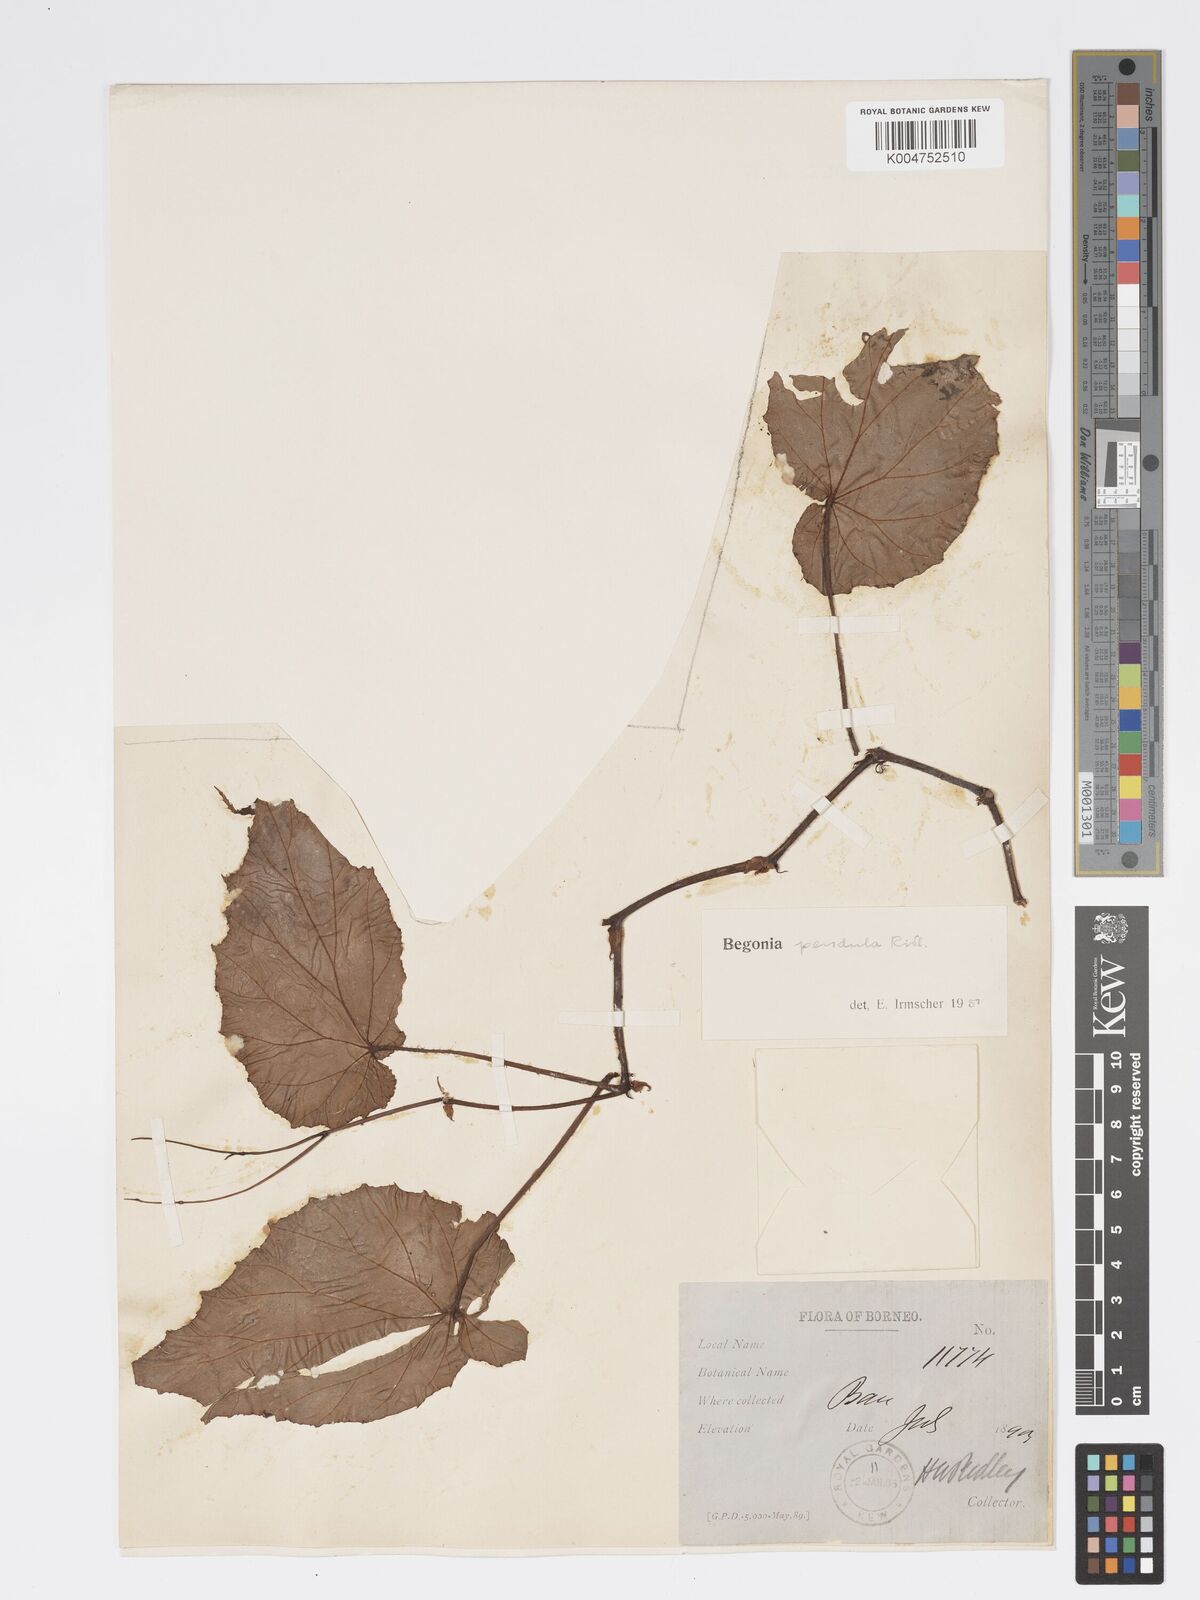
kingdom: Plantae
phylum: Tracheophyta
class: Magnoliopsida
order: Cucurbitales
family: Begoniaceae
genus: Begonia
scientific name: Begonia
